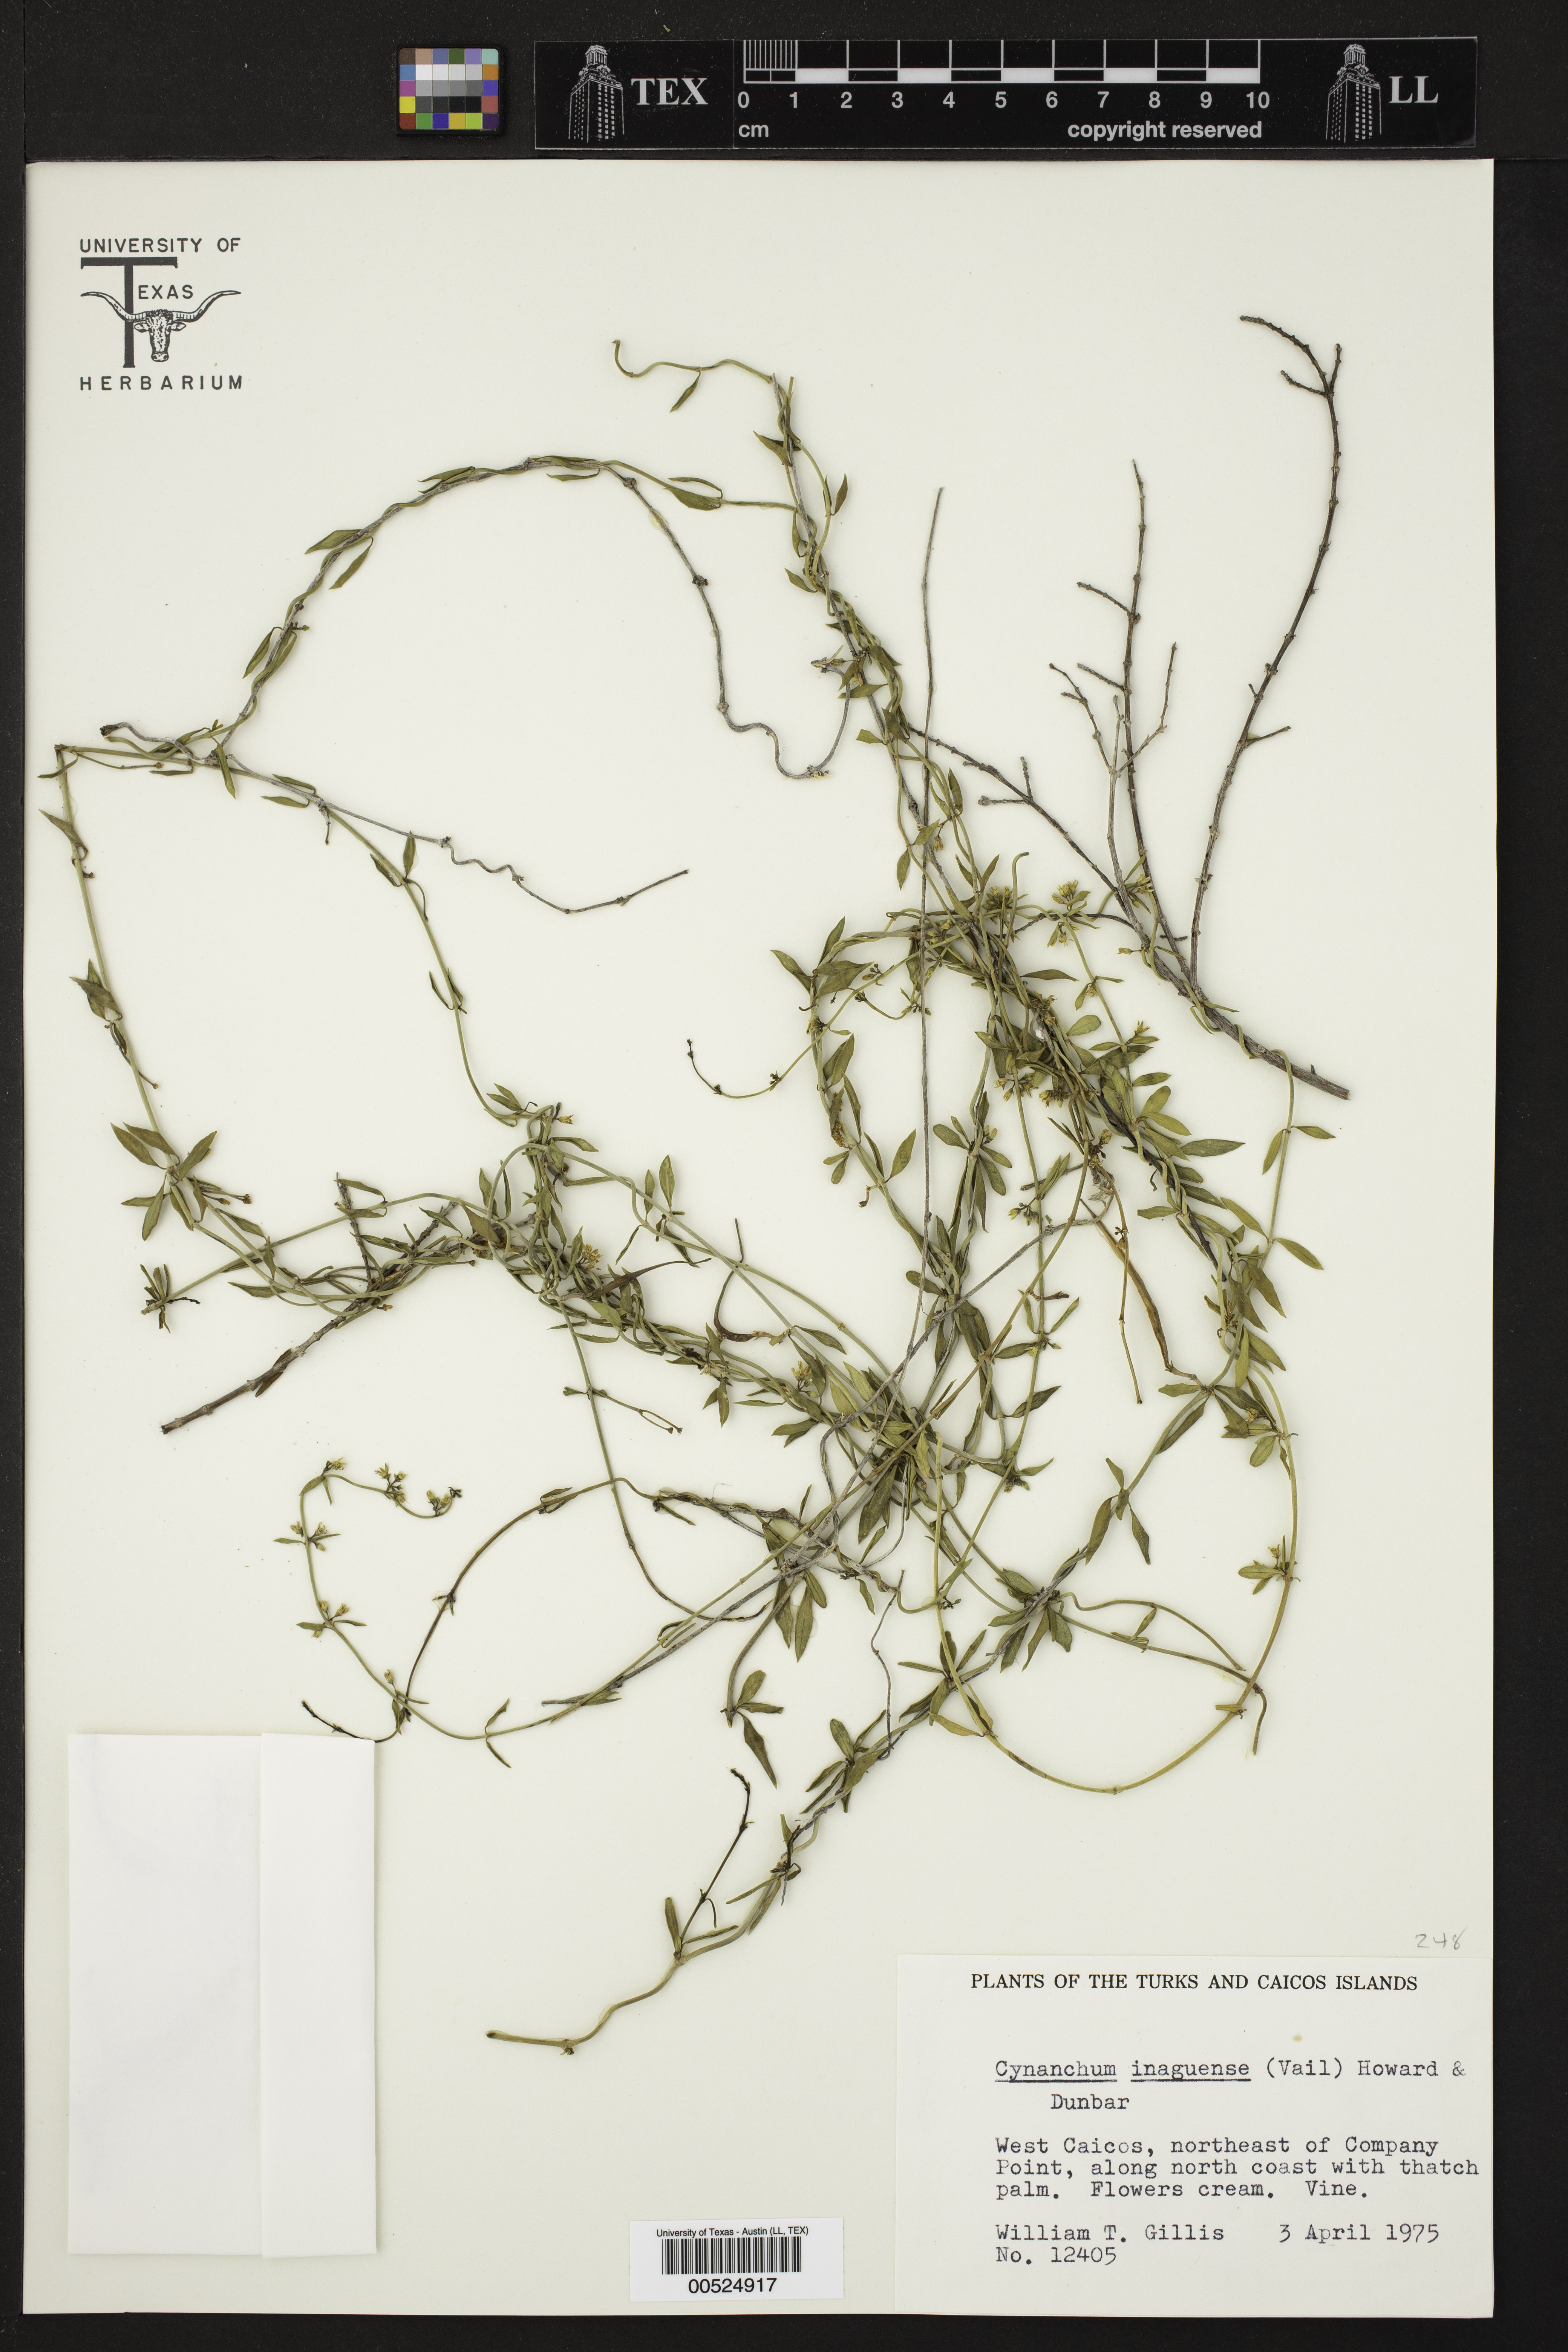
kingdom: Plantae
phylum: Tracheophyta
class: Magnoliopsida
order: Gentianales
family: Apocynaceae
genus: Metastelma
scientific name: Metastelma inaguense
